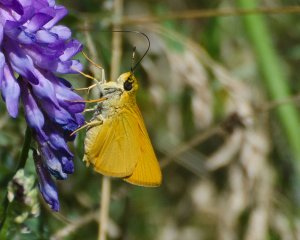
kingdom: Animalia
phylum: Arthropoda
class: Insecta
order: Lepidoptera
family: Hesperiidae
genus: Thymelicus
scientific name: Thymelicus lineola
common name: European Skipper
